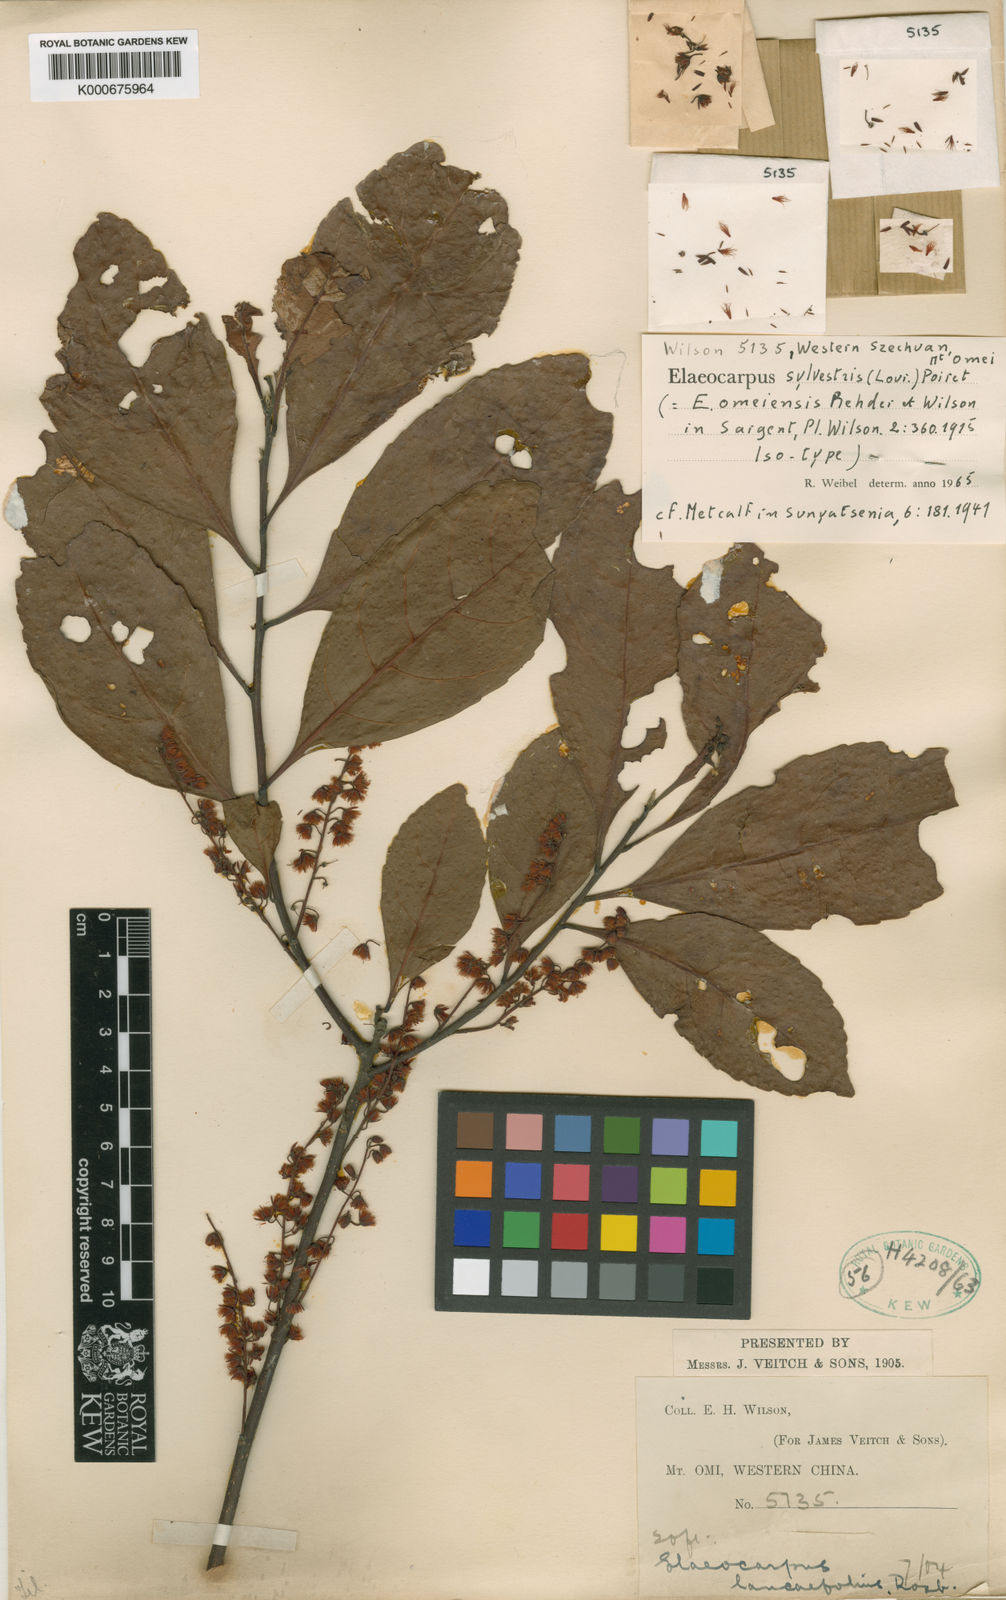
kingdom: Plantae
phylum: Tracheophyta
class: Magnoliopsida
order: Oxalidales
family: Elaeocarpaceae
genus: Elaeocarpus
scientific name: Elaeocarpus sylvestris
